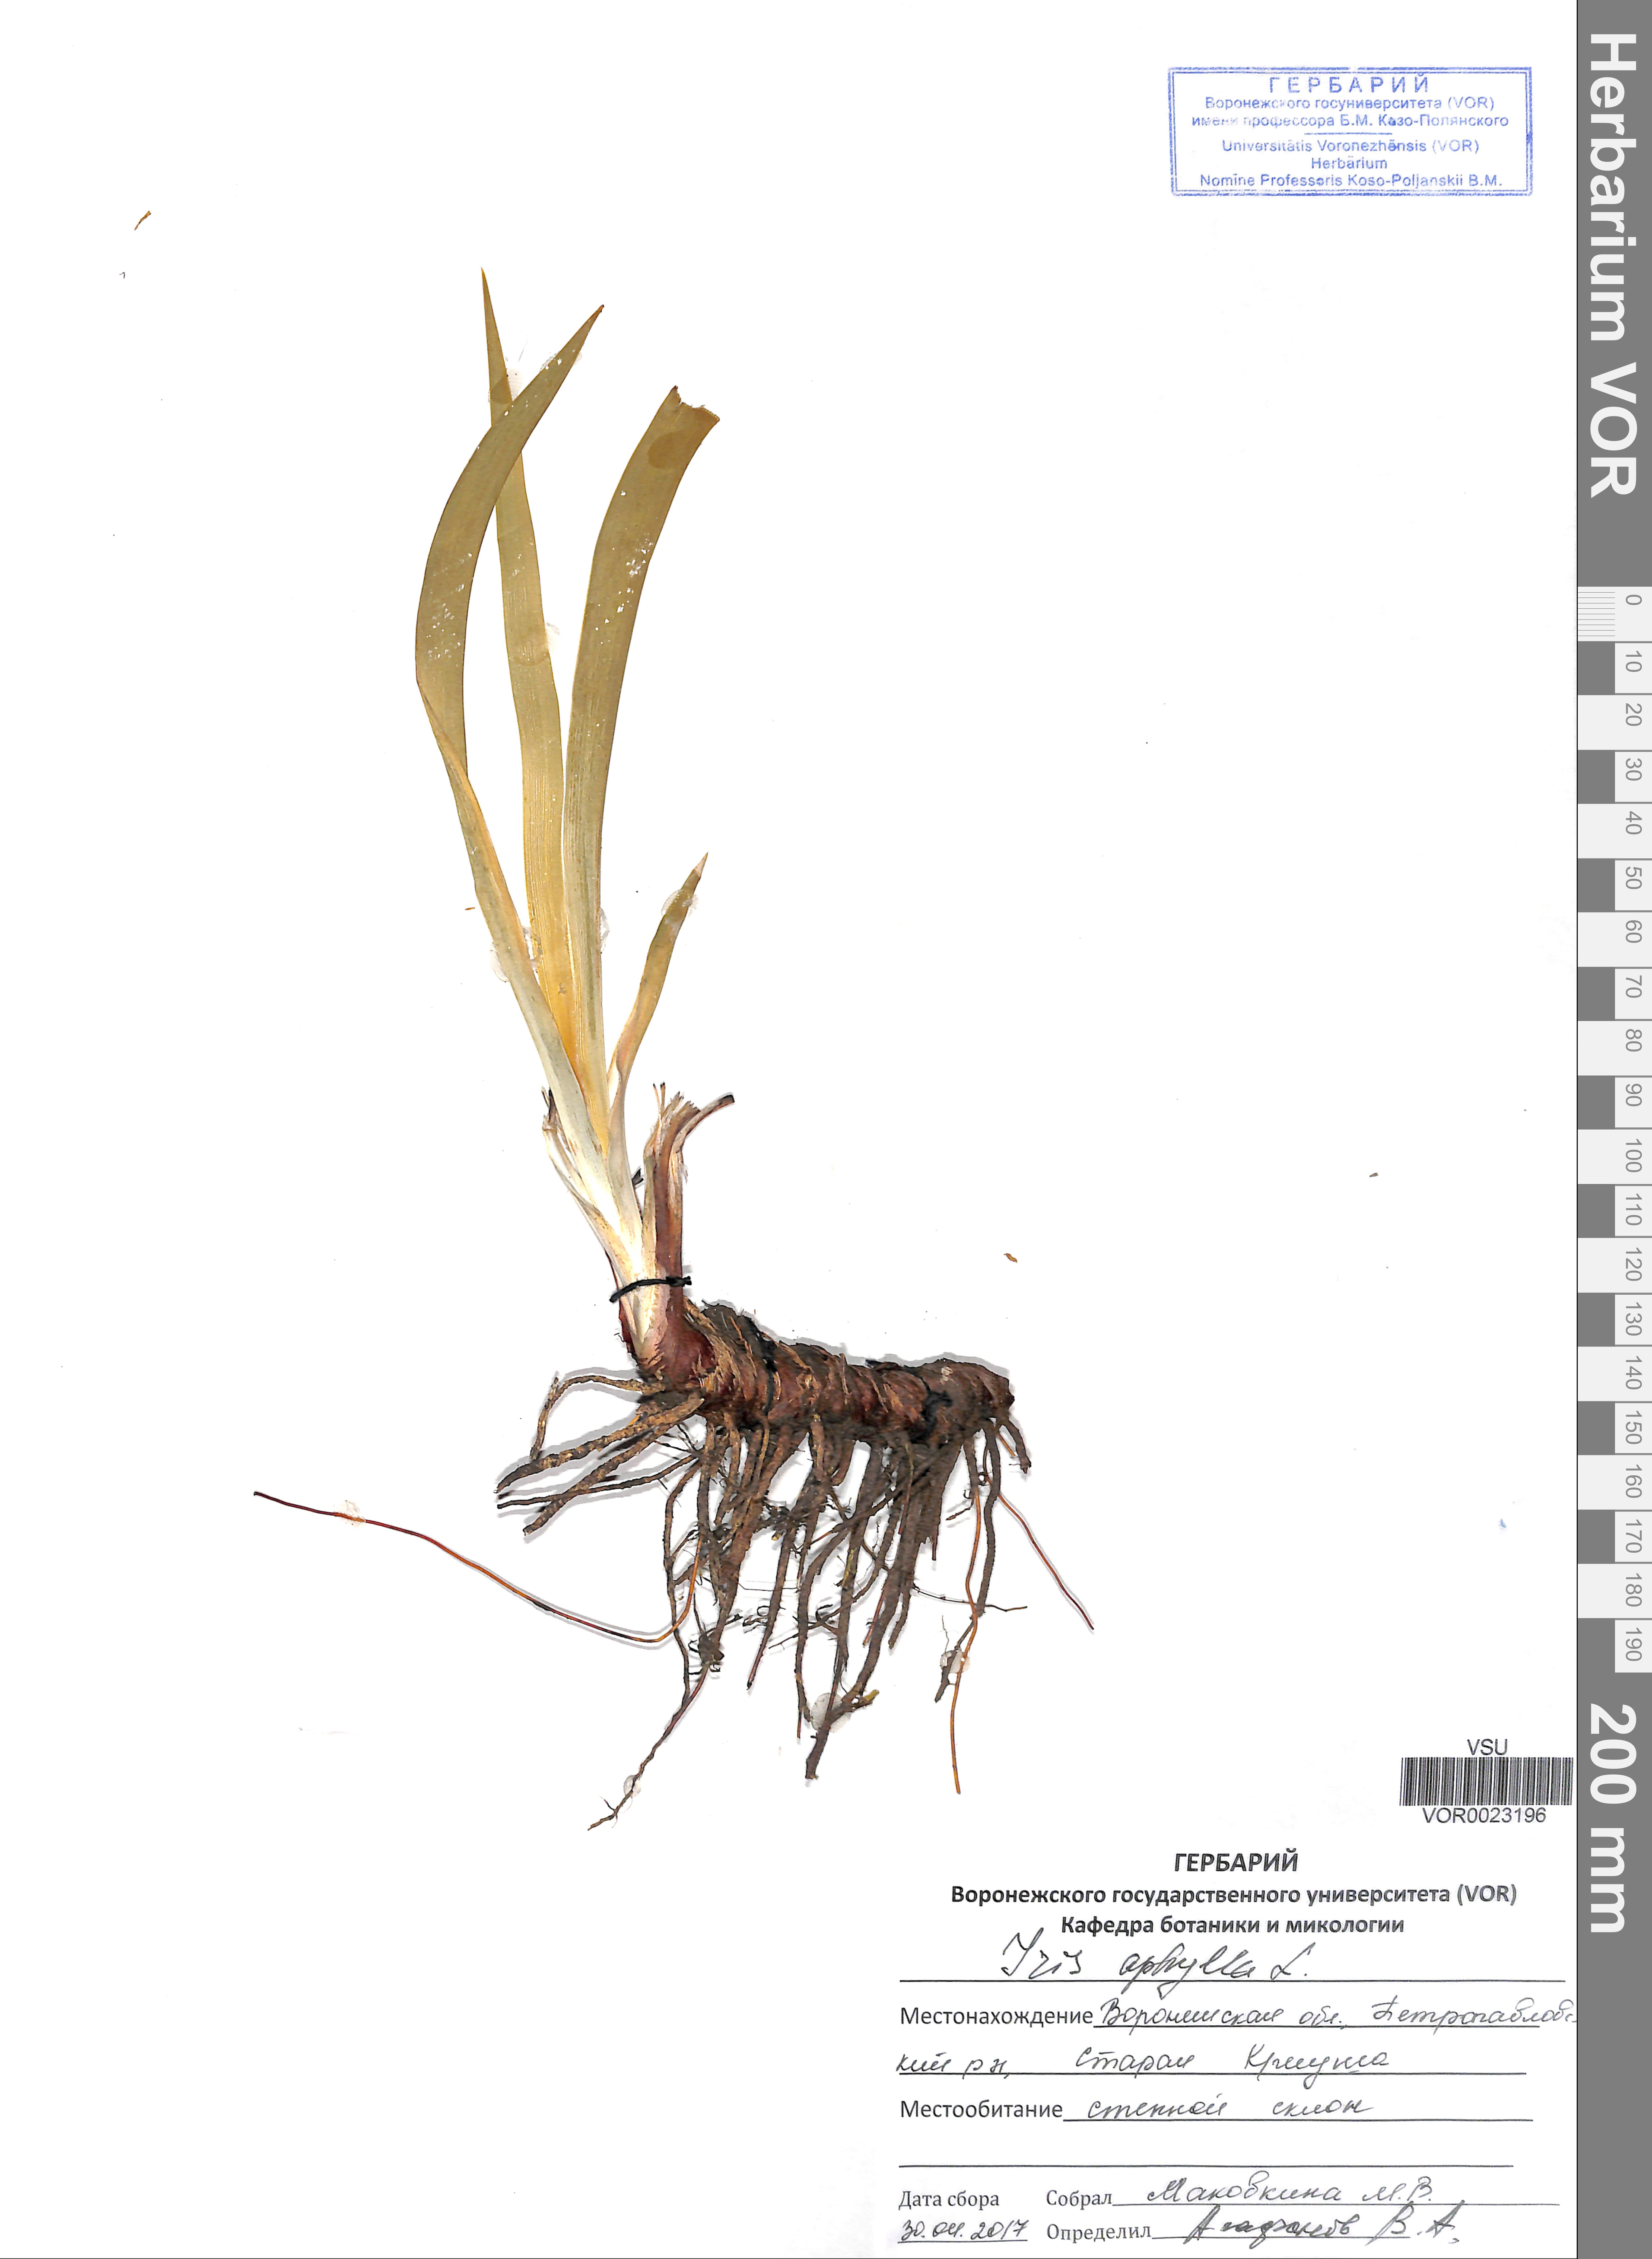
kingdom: Plantae
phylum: Tracheophyta
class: Liliopsida
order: Asparagales
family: Iridaceae
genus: Iris
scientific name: Iris aphylla
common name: Stool iris
